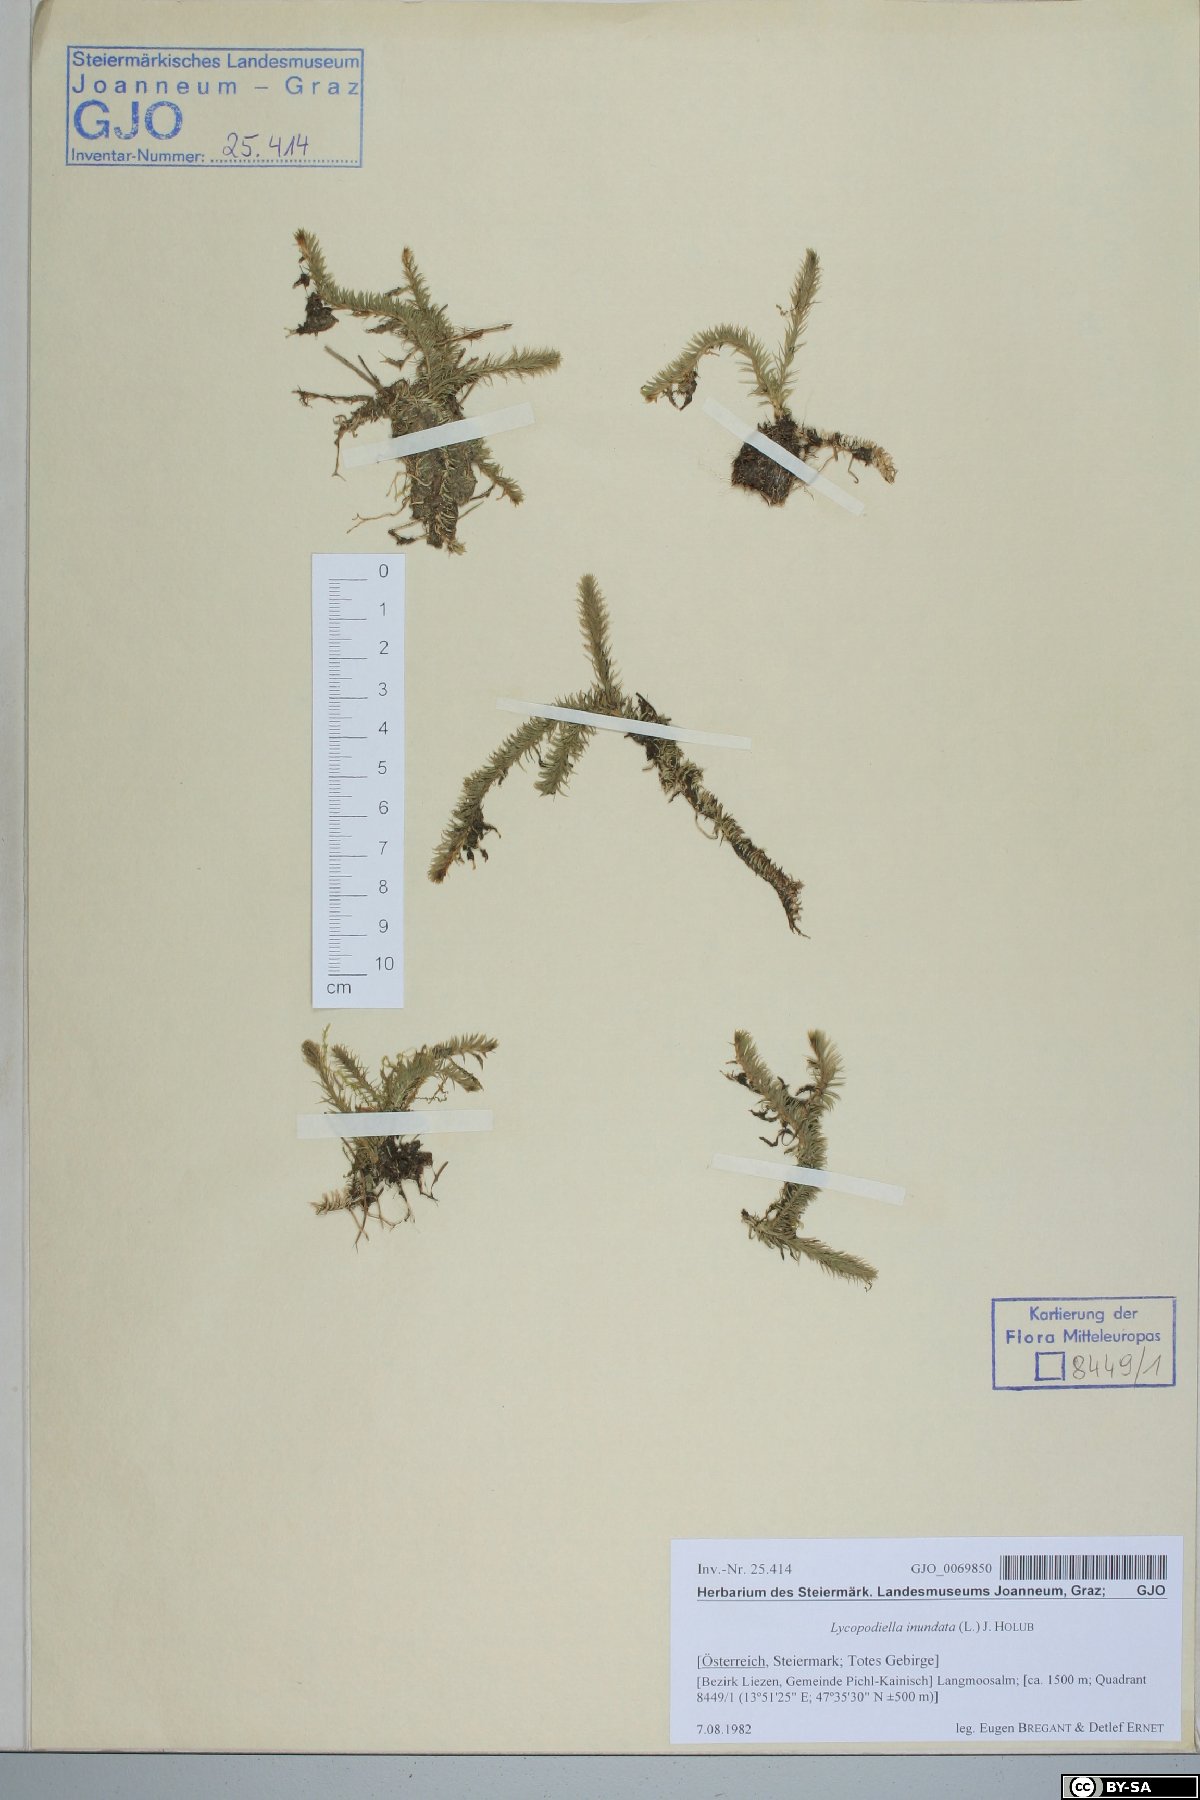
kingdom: Plantae
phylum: Tracheophyta
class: Lycopodiopsida
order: Lycopodiales
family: Lycopodiaceae
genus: Lycopodiella
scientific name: Lycopodiella inundata
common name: Marsh clubmoss
